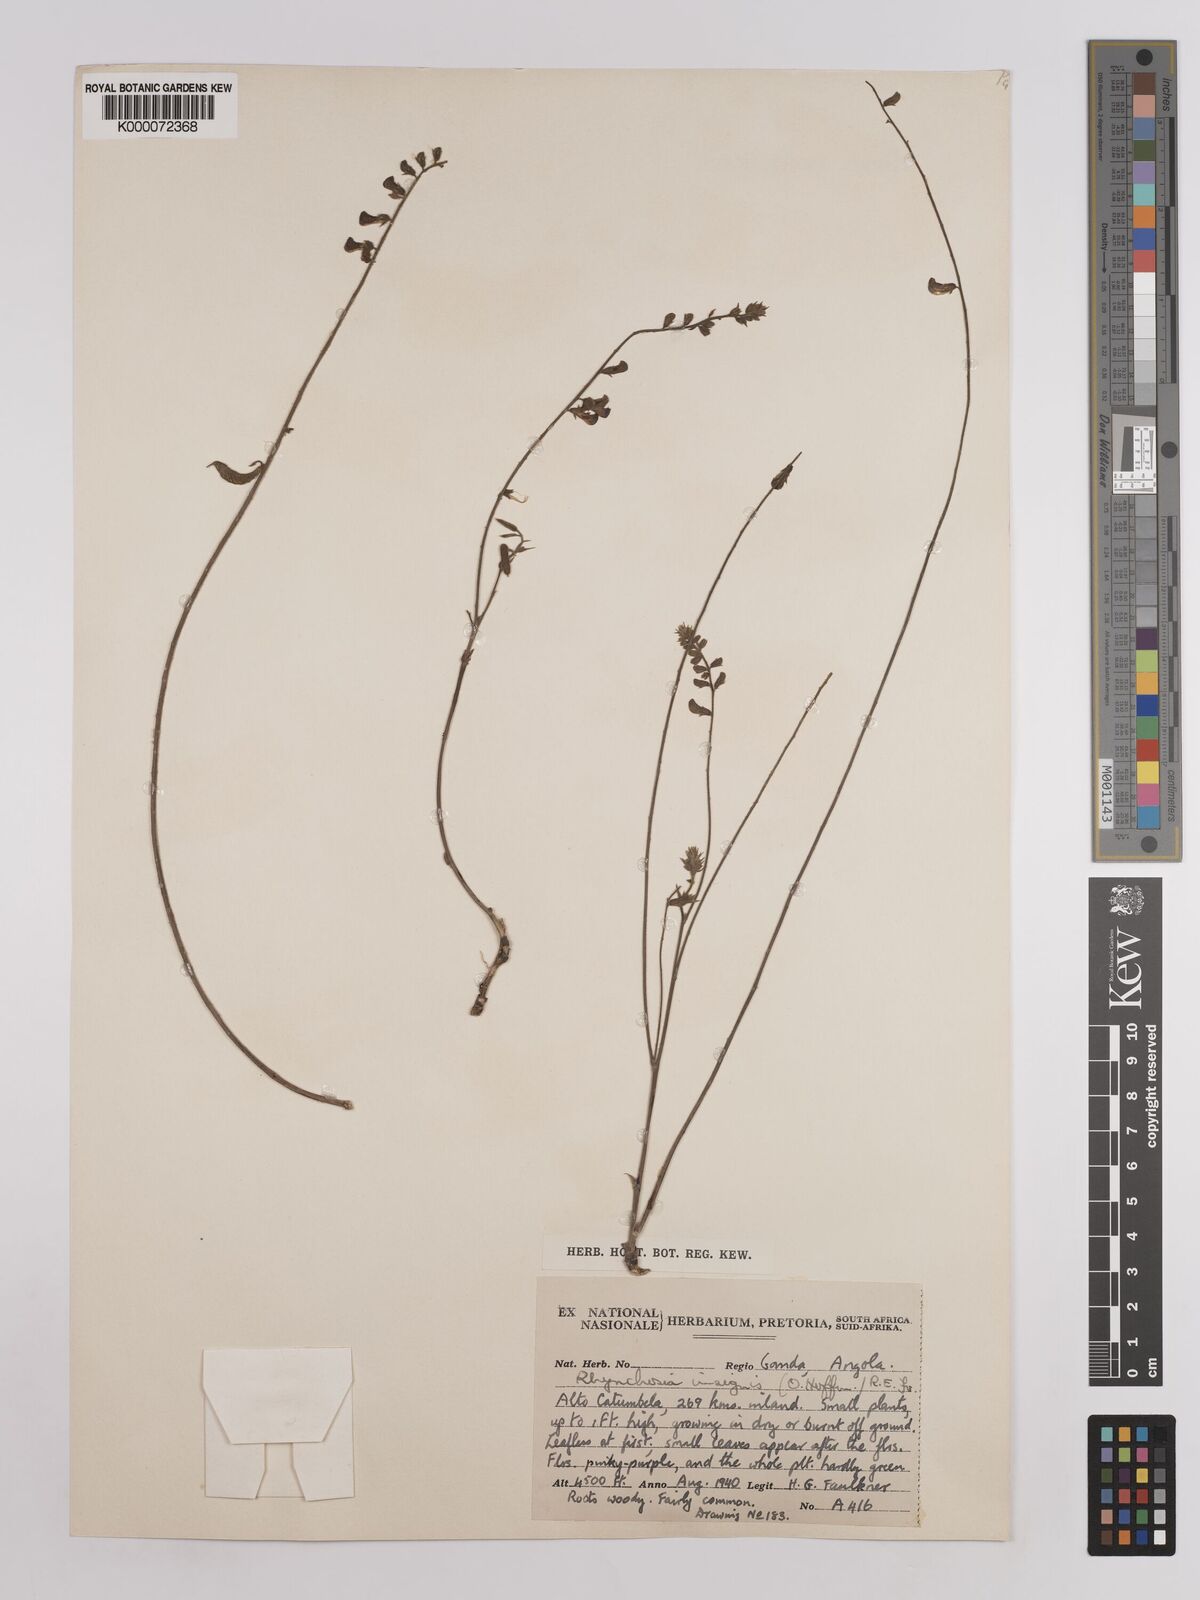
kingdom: Plantae
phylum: Tracheophyta
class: Magnoliopsida
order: Fabales
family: Fabaceae
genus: Rhynchosia
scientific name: Rhynchosia insignis
